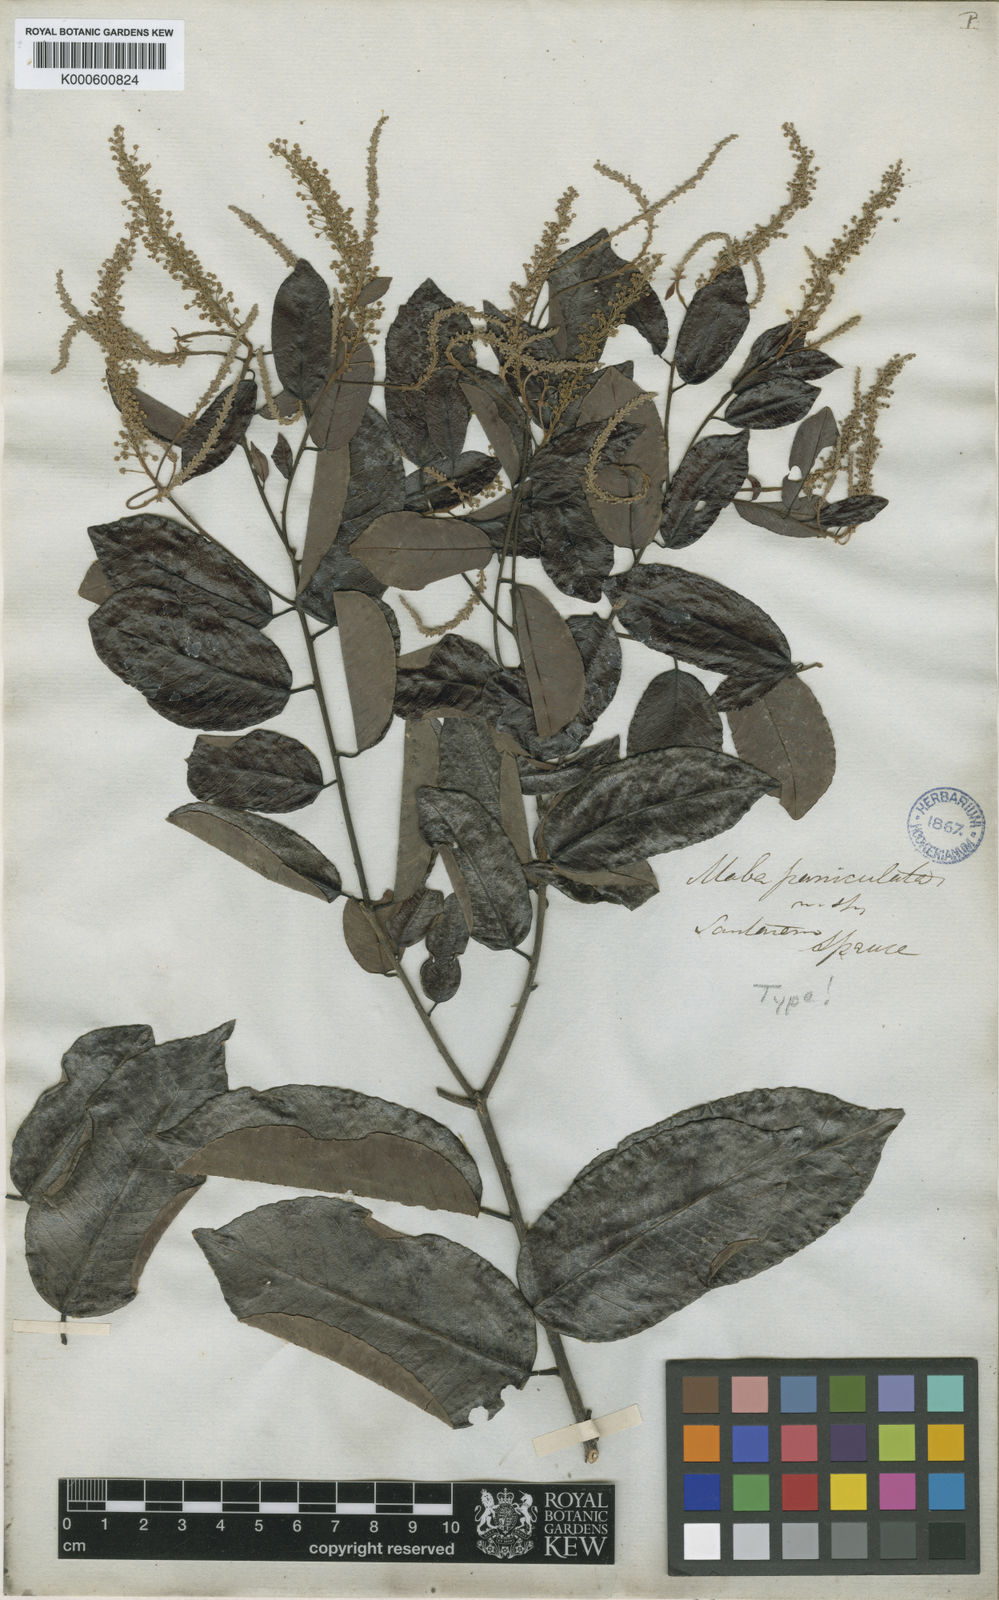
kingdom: Plantae
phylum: Tracheophyta
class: Magnoliopsida
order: Malpighiales
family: Euphorbiaceae
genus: Mabea
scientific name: Mabea paniculata
